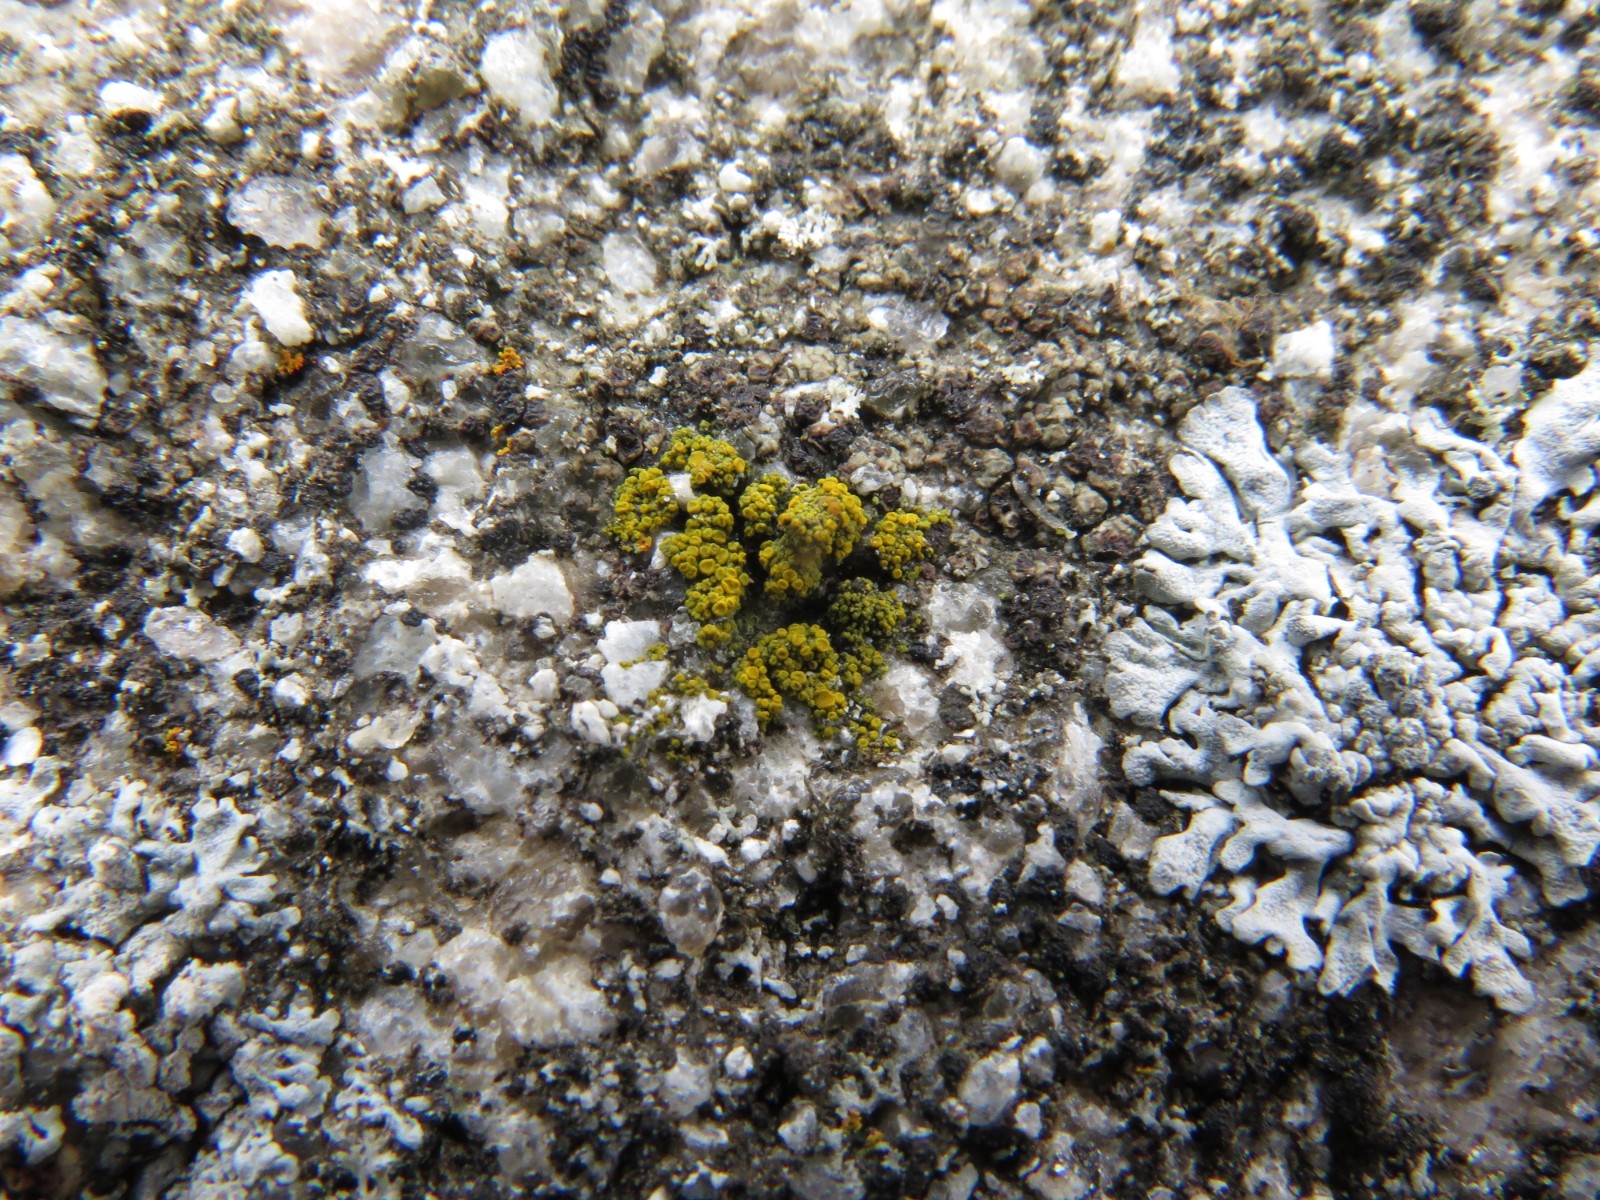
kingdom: Fungi
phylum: Ascomycota
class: Candelariomycetes
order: Candelariales
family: Candelariaceae
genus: Candelariella
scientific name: Candelariella vitellina
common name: almindelig æggeblommelav
